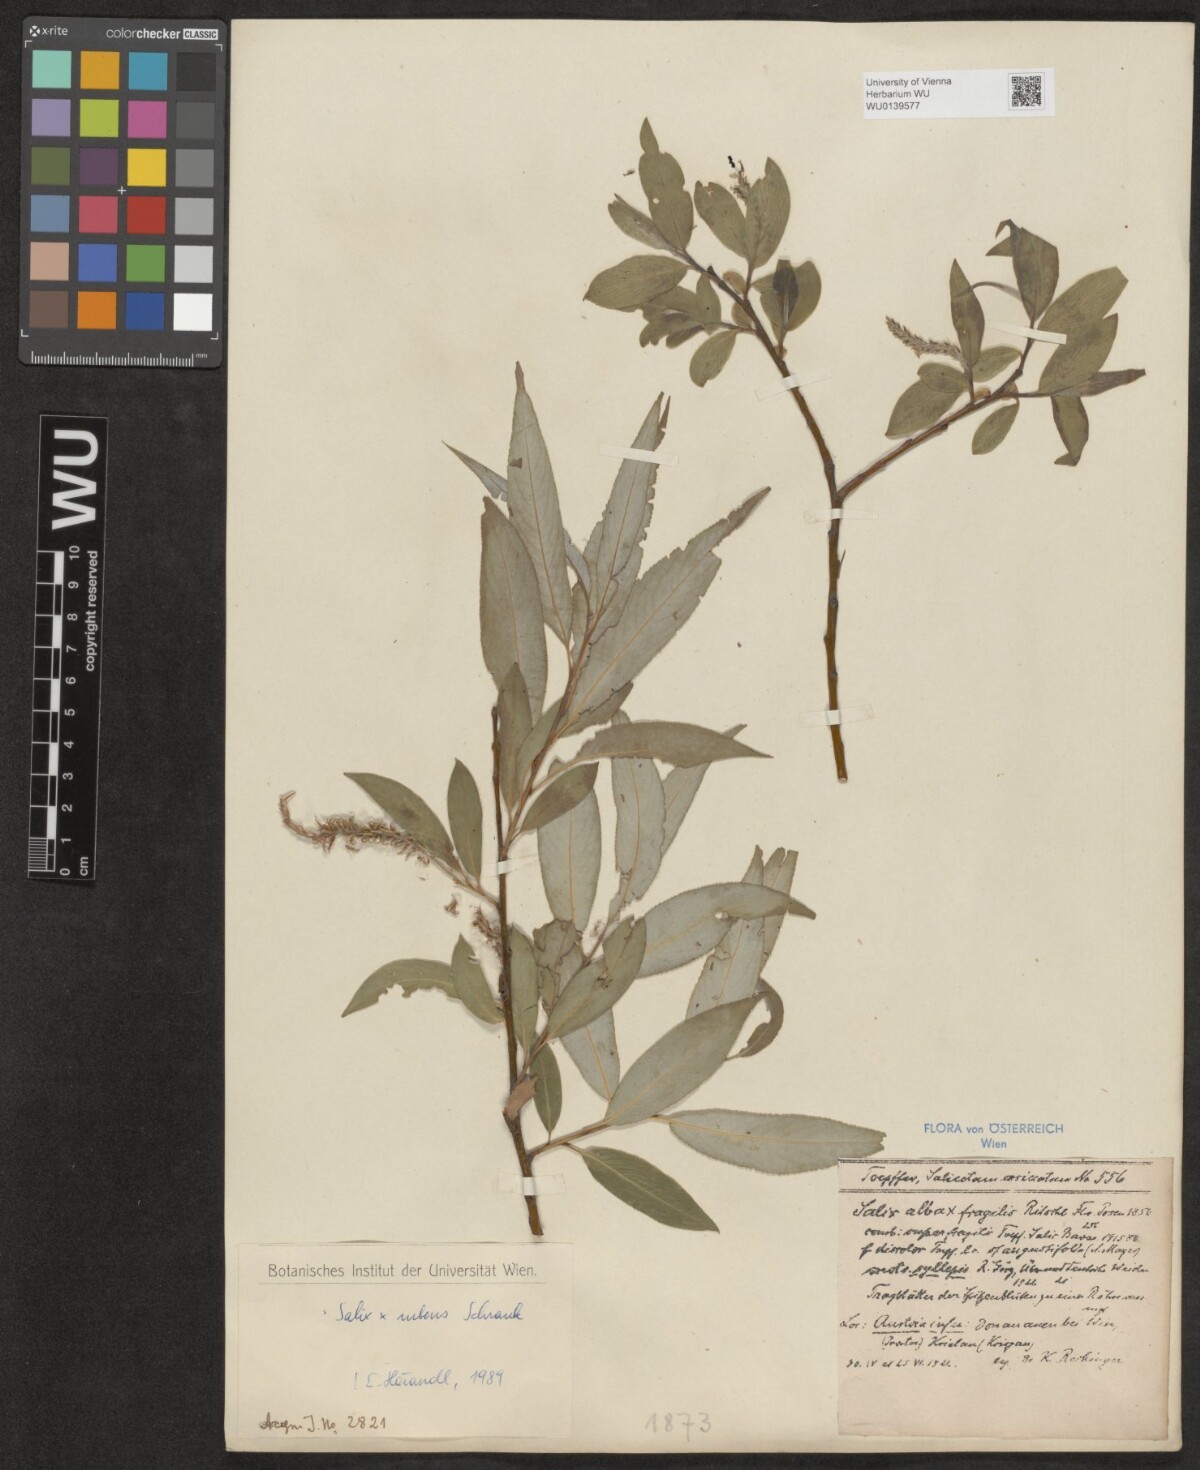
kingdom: Plantae
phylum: Tracheophyta
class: Magnoliopsida
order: Malpighiales
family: Salicaceae
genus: Salix
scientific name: Salix rubens
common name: Hybrid crack willow
